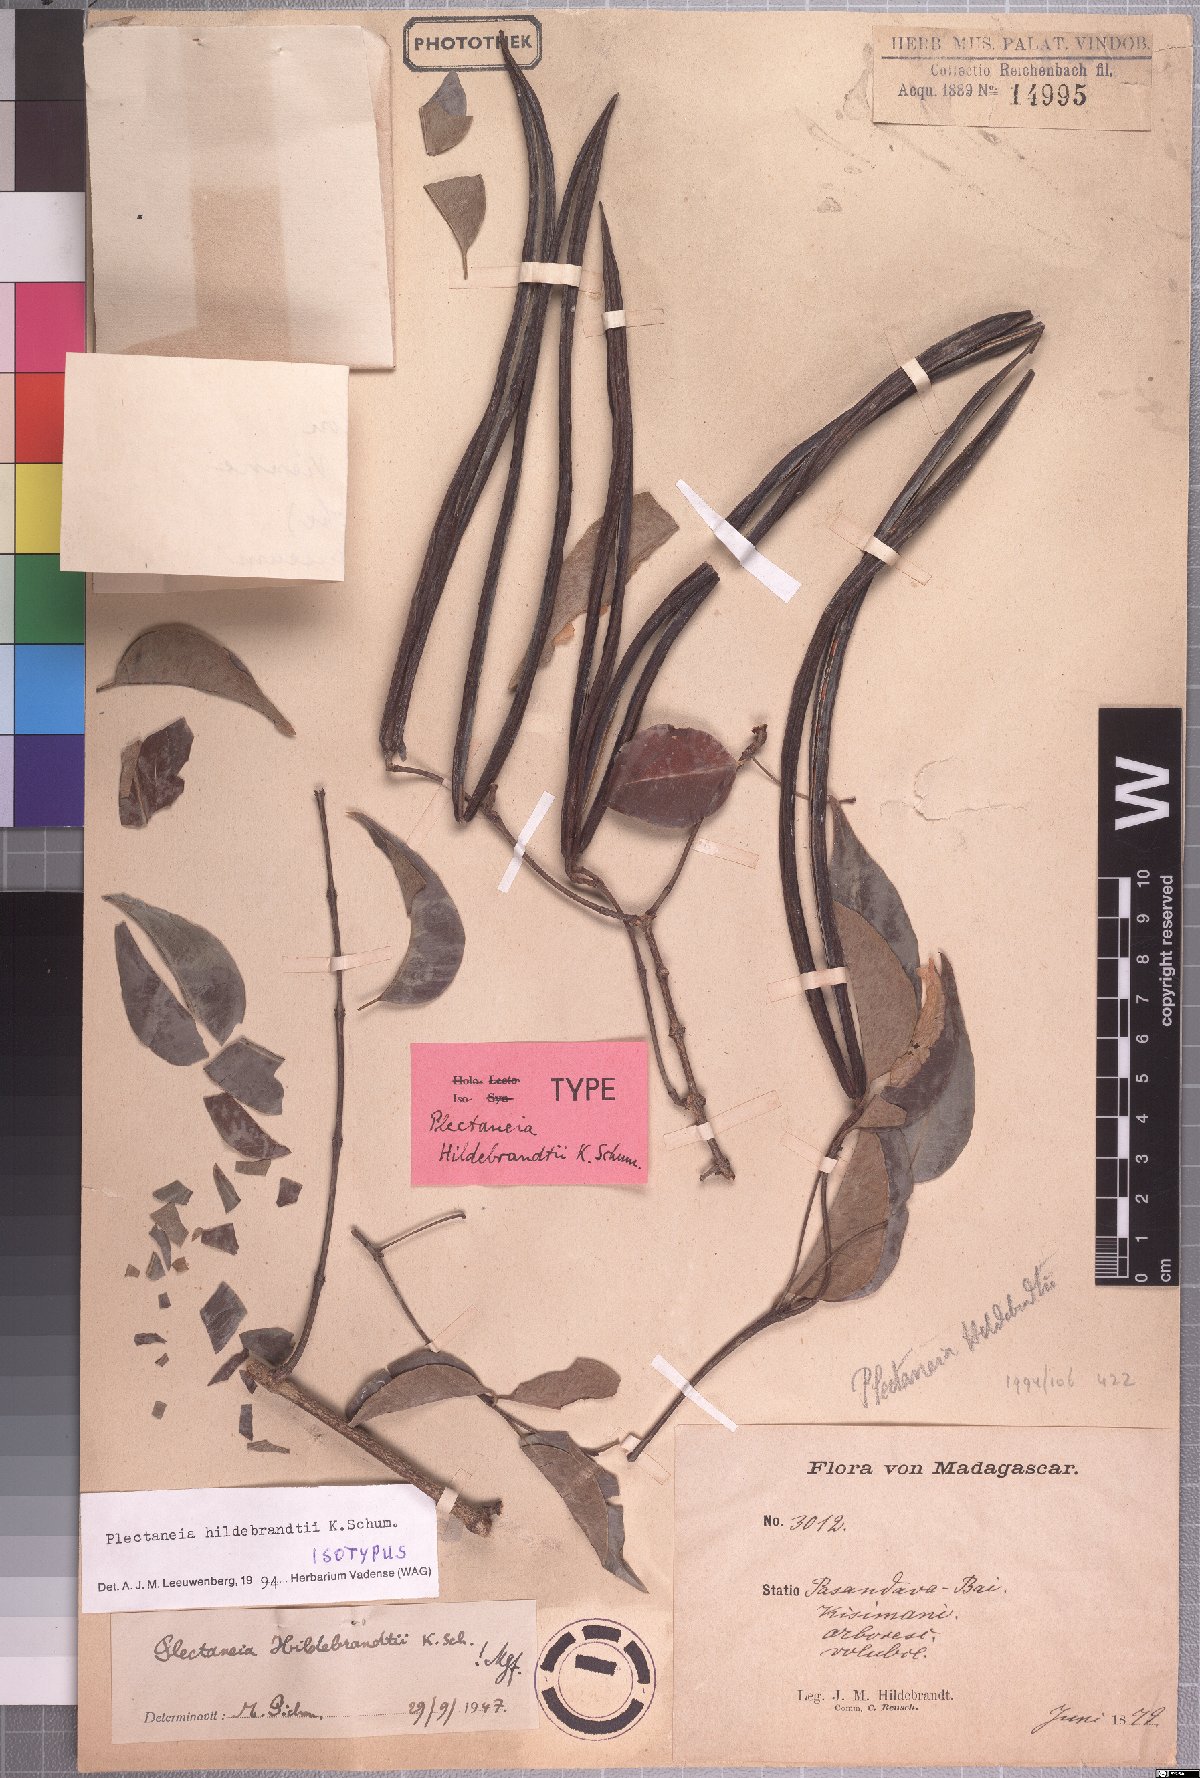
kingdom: Plantae
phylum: Tracheophyta
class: Magnoliopsida
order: Gentianales
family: Apocynaceae
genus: Plectaneia
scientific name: Plectaneia thouarsii
